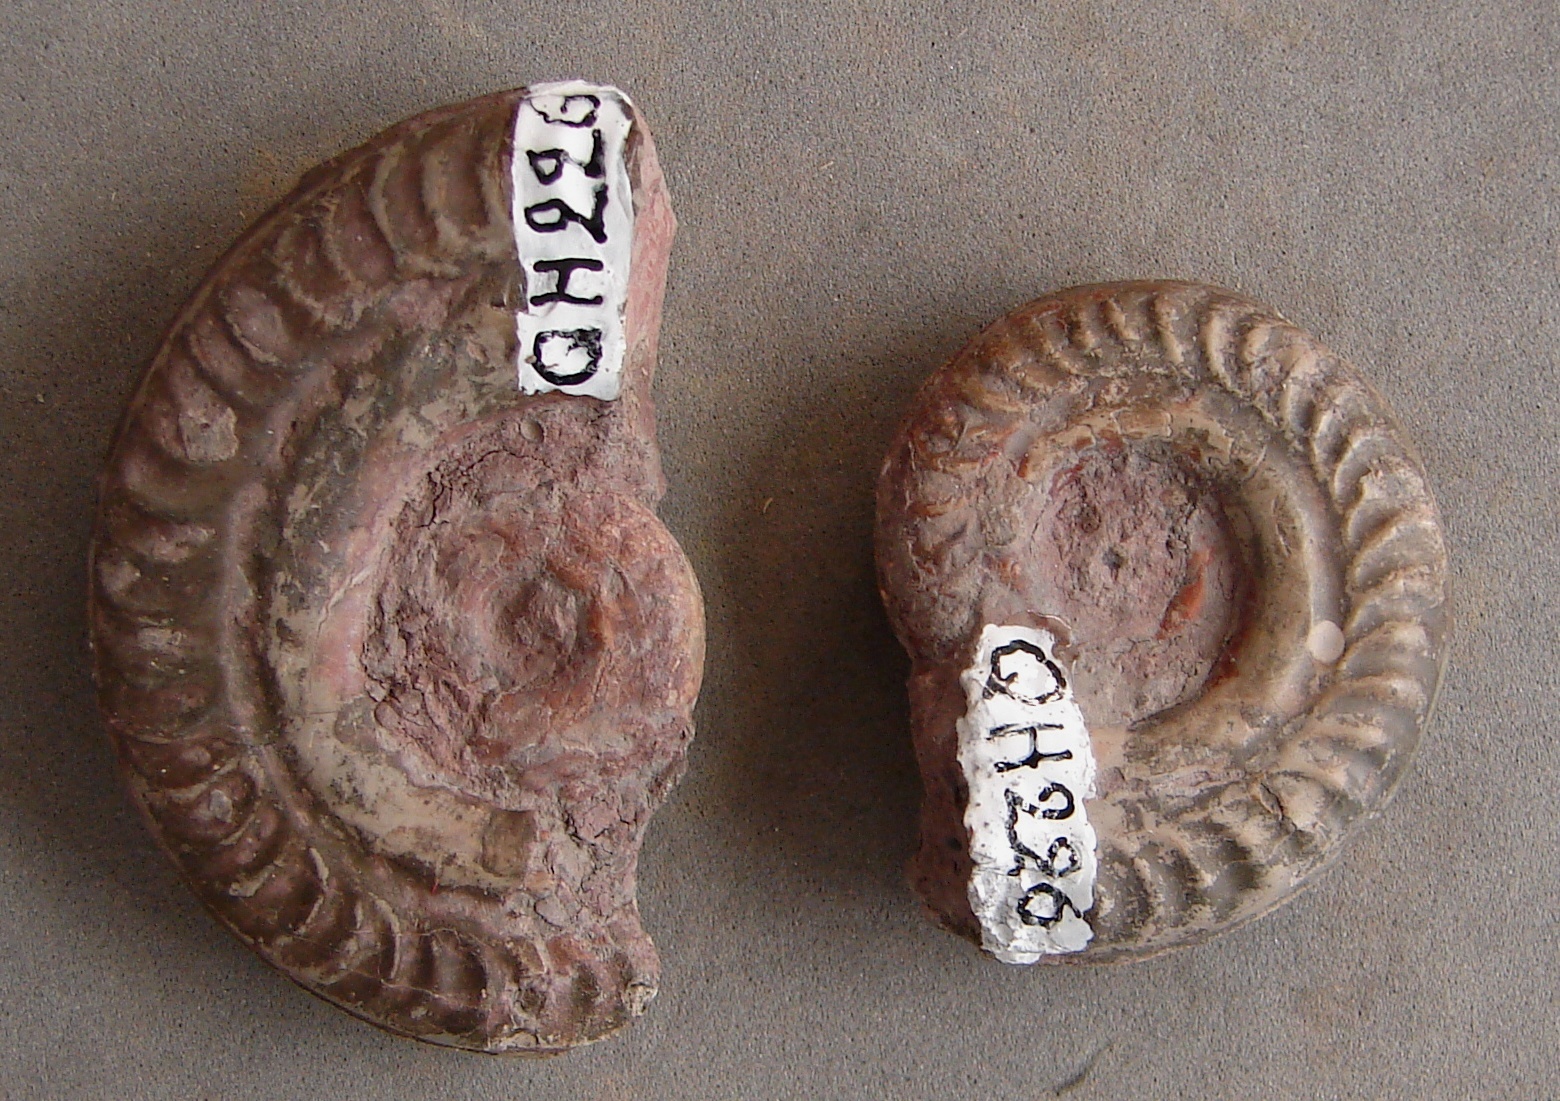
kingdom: Animalia
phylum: Mollusca
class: Cephalopoda
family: Hildoceratidae
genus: Hildoceras
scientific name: Hildoceras bifrons
